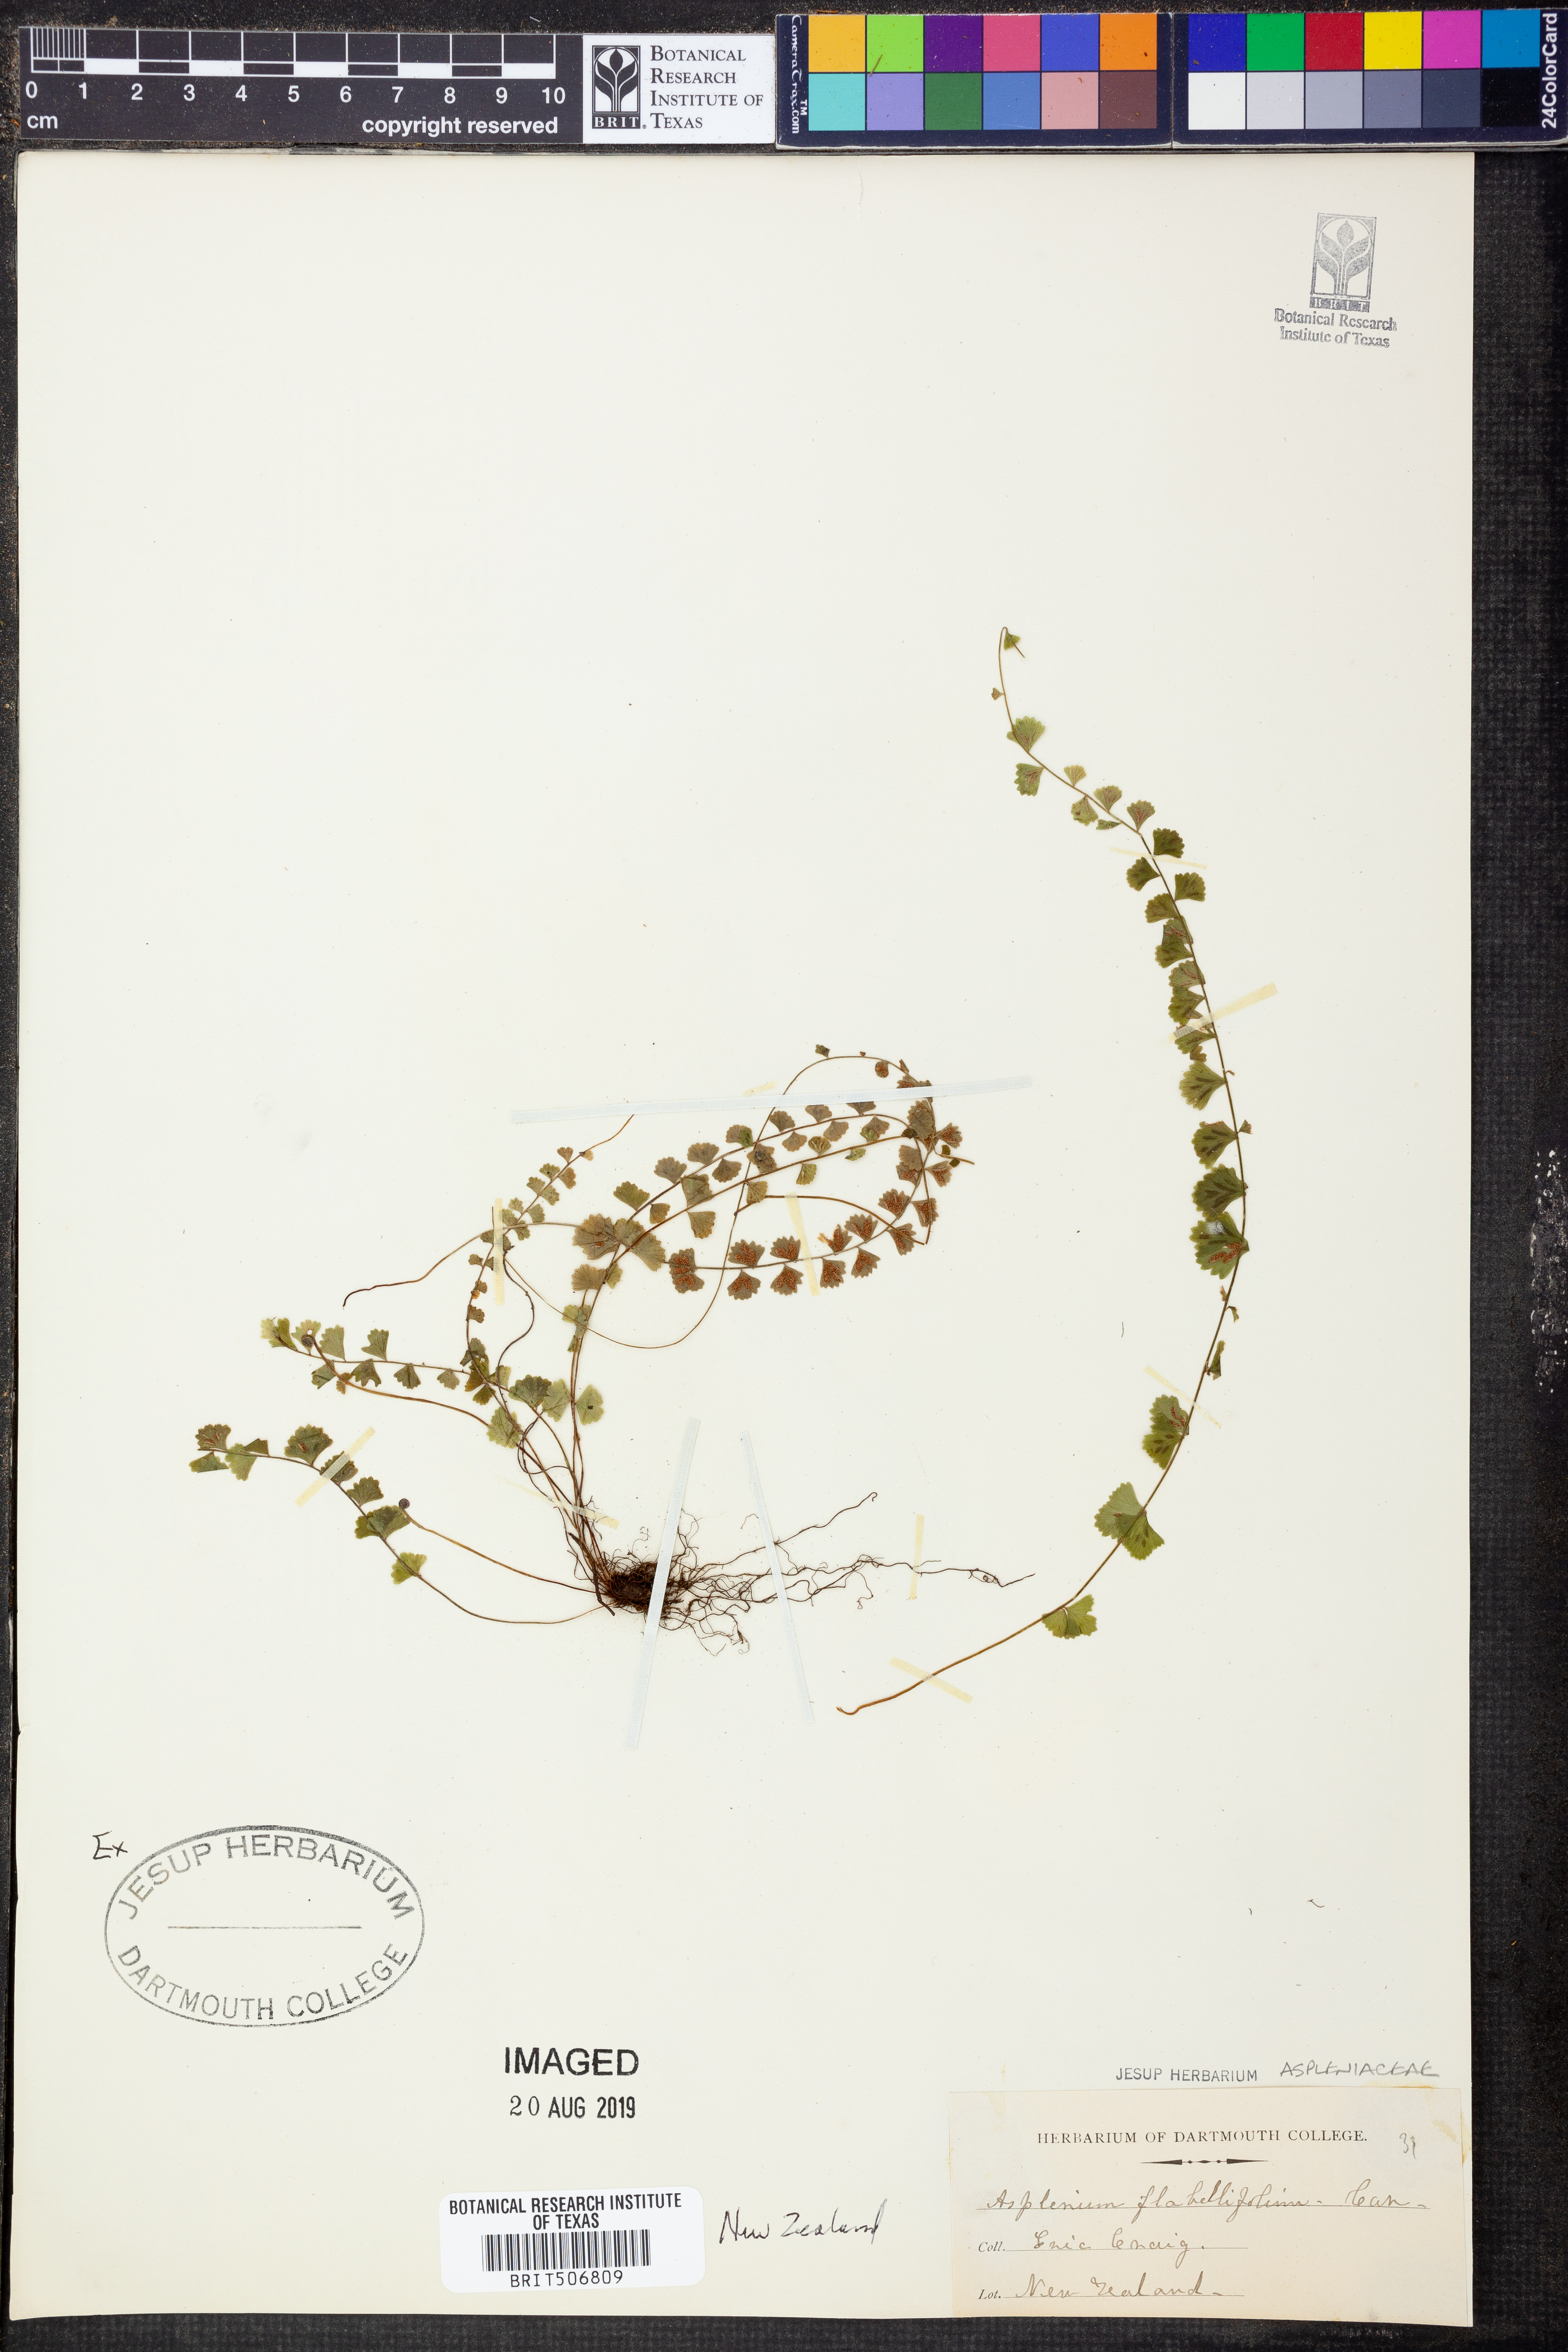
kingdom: Plantae
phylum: Tracheophyta
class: Polypodiopsida
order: Polypodiales
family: Aspleniaceae
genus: Asplenium
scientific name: Asplenium flabellifolium
